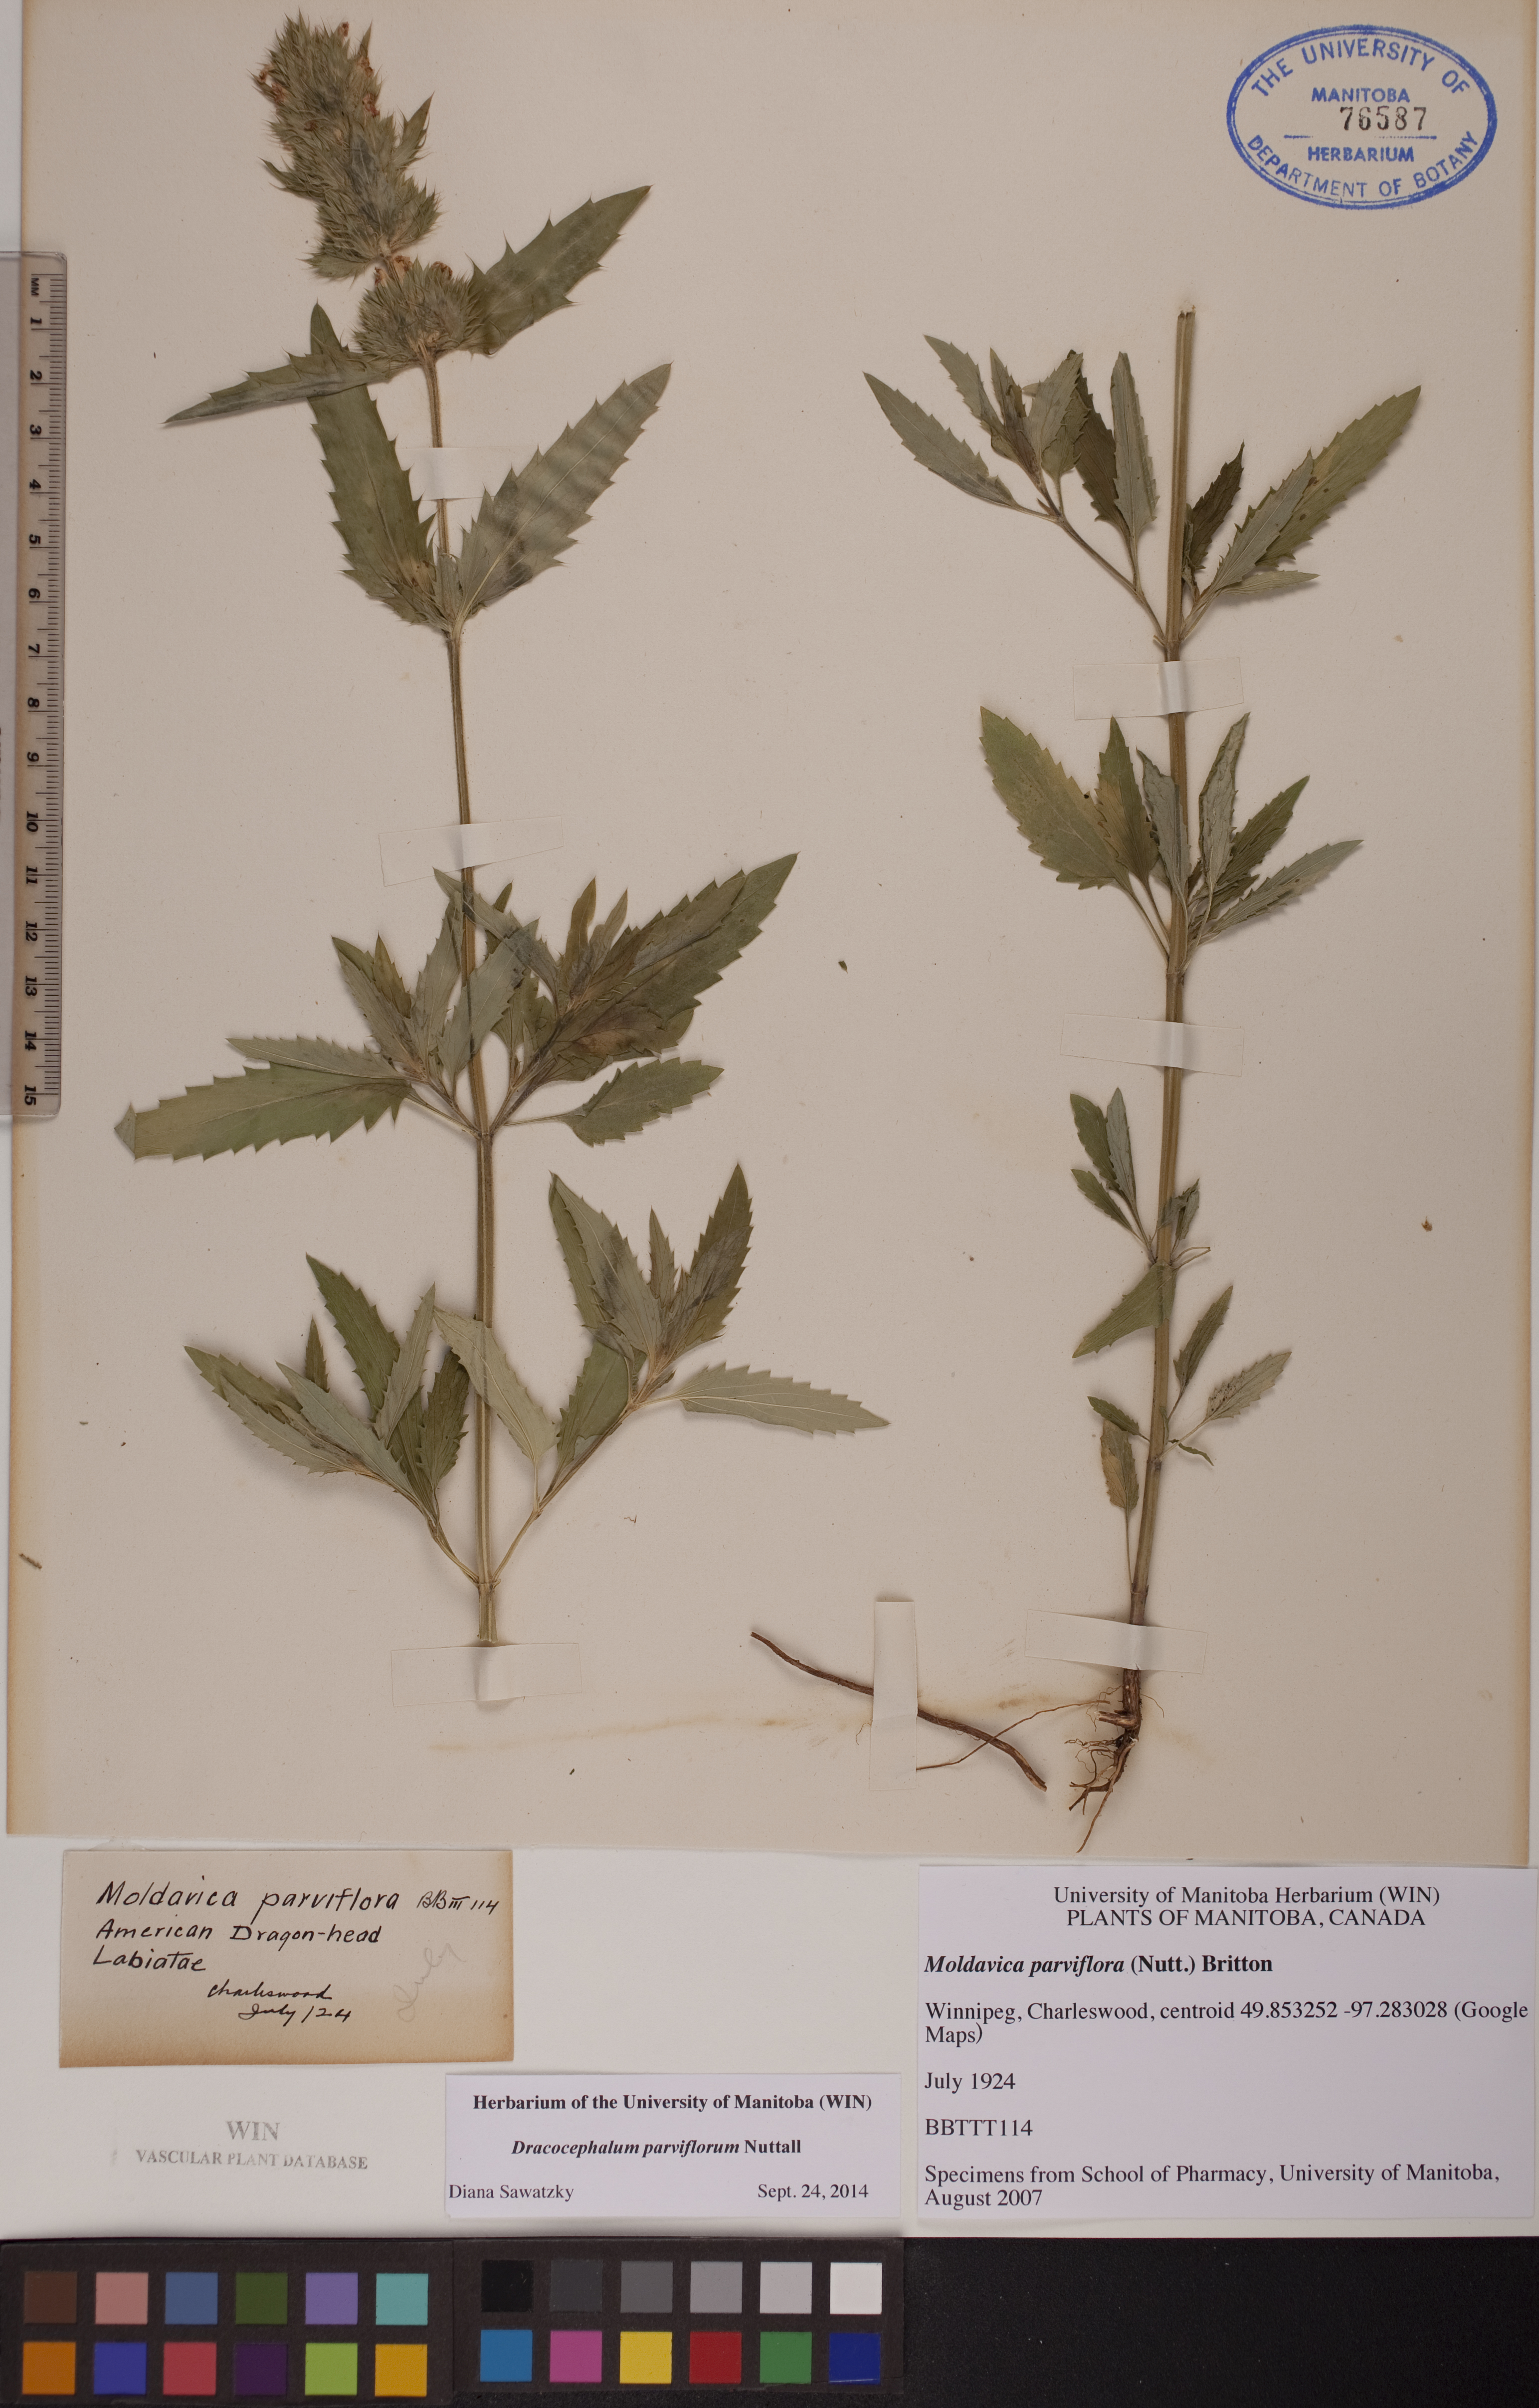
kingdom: Plantae
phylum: Tracheophyta
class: Magnoliopsida
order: Lamiales
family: Lamiaceae
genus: Dracocephalum
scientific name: Dracocephalum parviflorum
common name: American dragonhead
